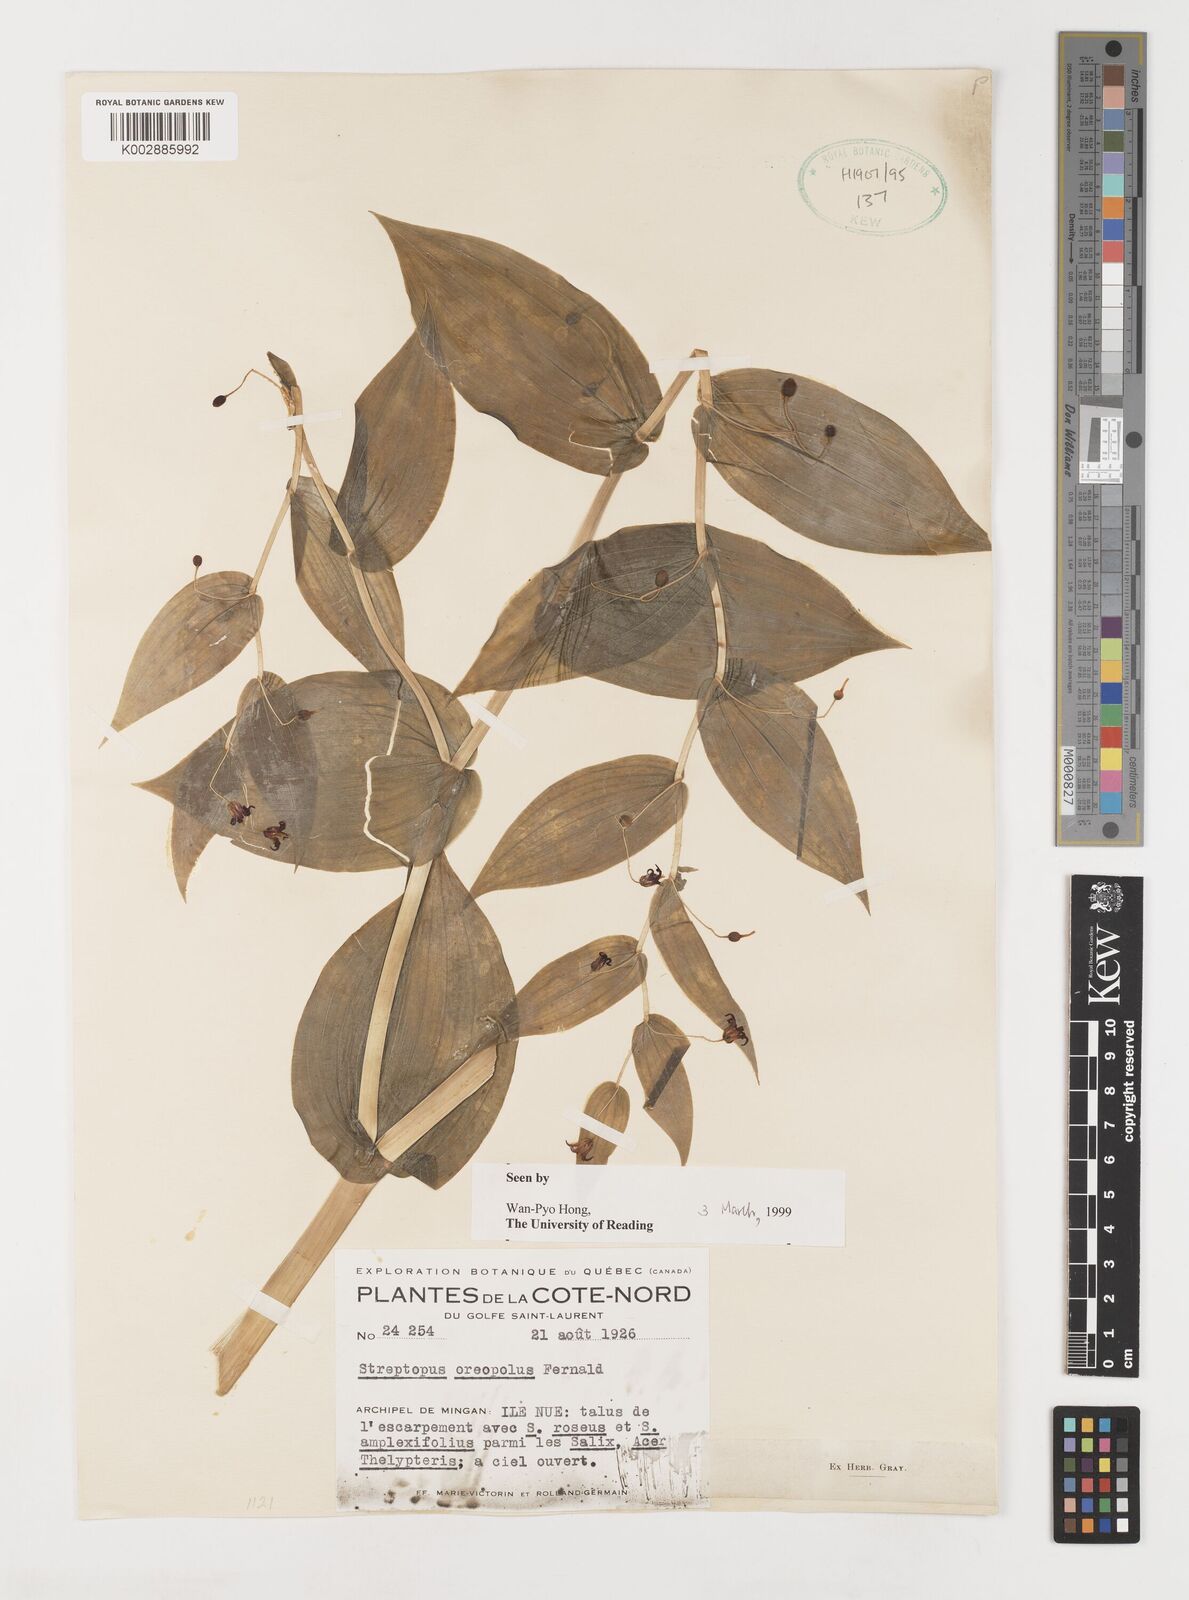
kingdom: Plantae
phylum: Tracheophyta
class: Liliopsida
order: Liliales
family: Liliaceae
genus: Streptopus
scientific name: Streptopus oreopolus
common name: Hybrid twisted-stalk
